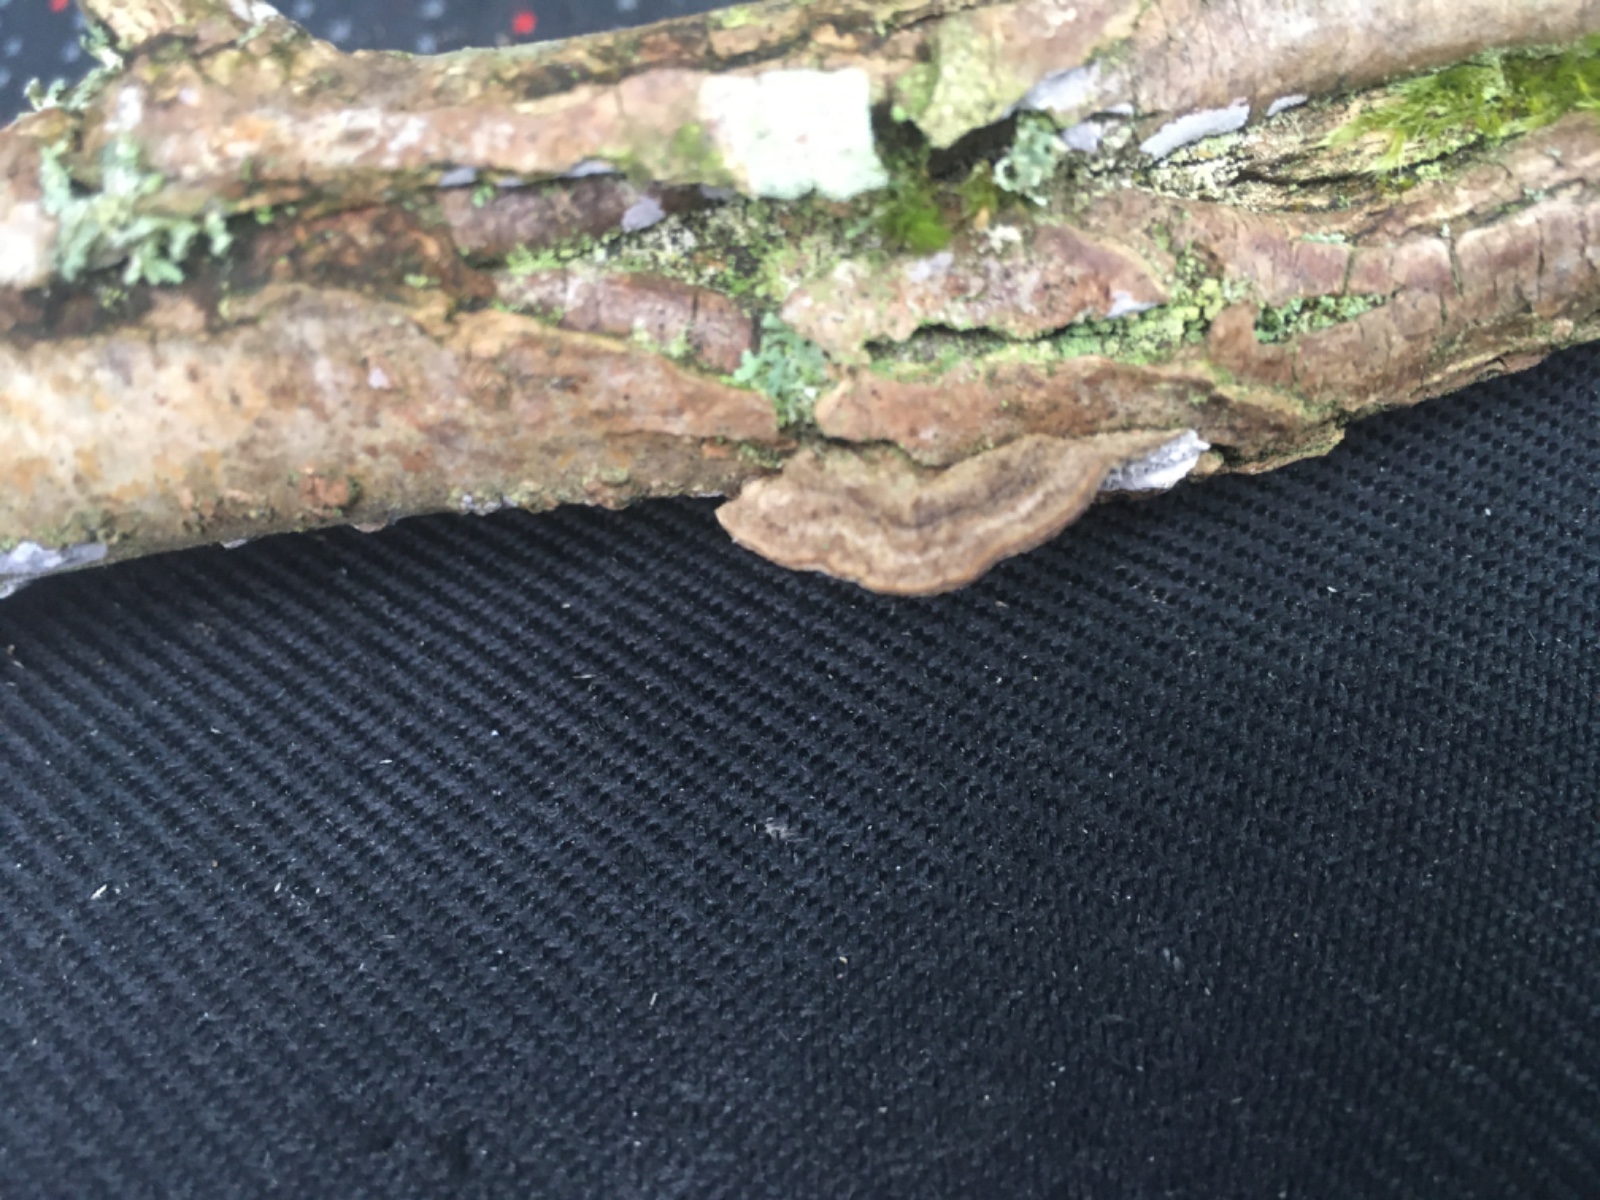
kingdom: Fungi
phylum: Basidiomycota
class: Agaricomycetes
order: Polyporales
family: Polyporaceae
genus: Podofomes
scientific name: Podofomes mollis
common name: blød begporesvamp
